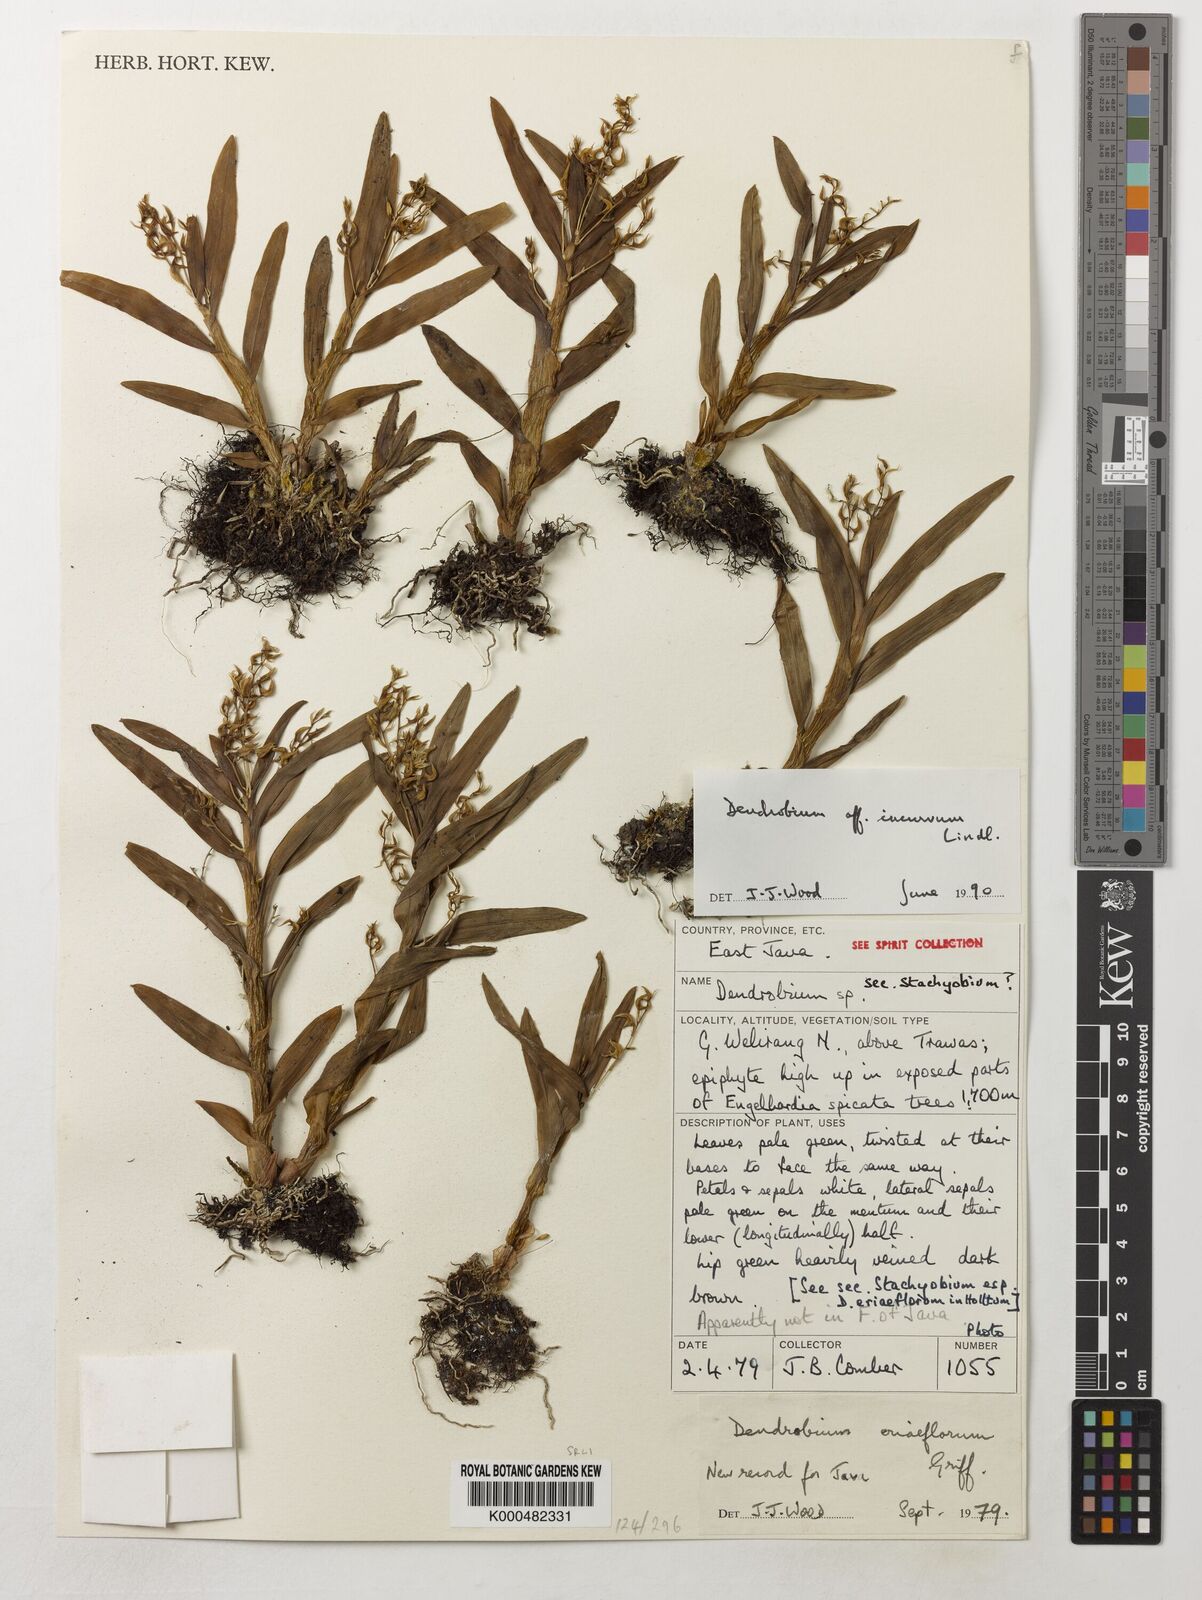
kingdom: Plantae
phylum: Tracheophyta
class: Liliopsida
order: Asparagales
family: Orchidaceae
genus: Dendrobium
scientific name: Dendrobium incurvum
